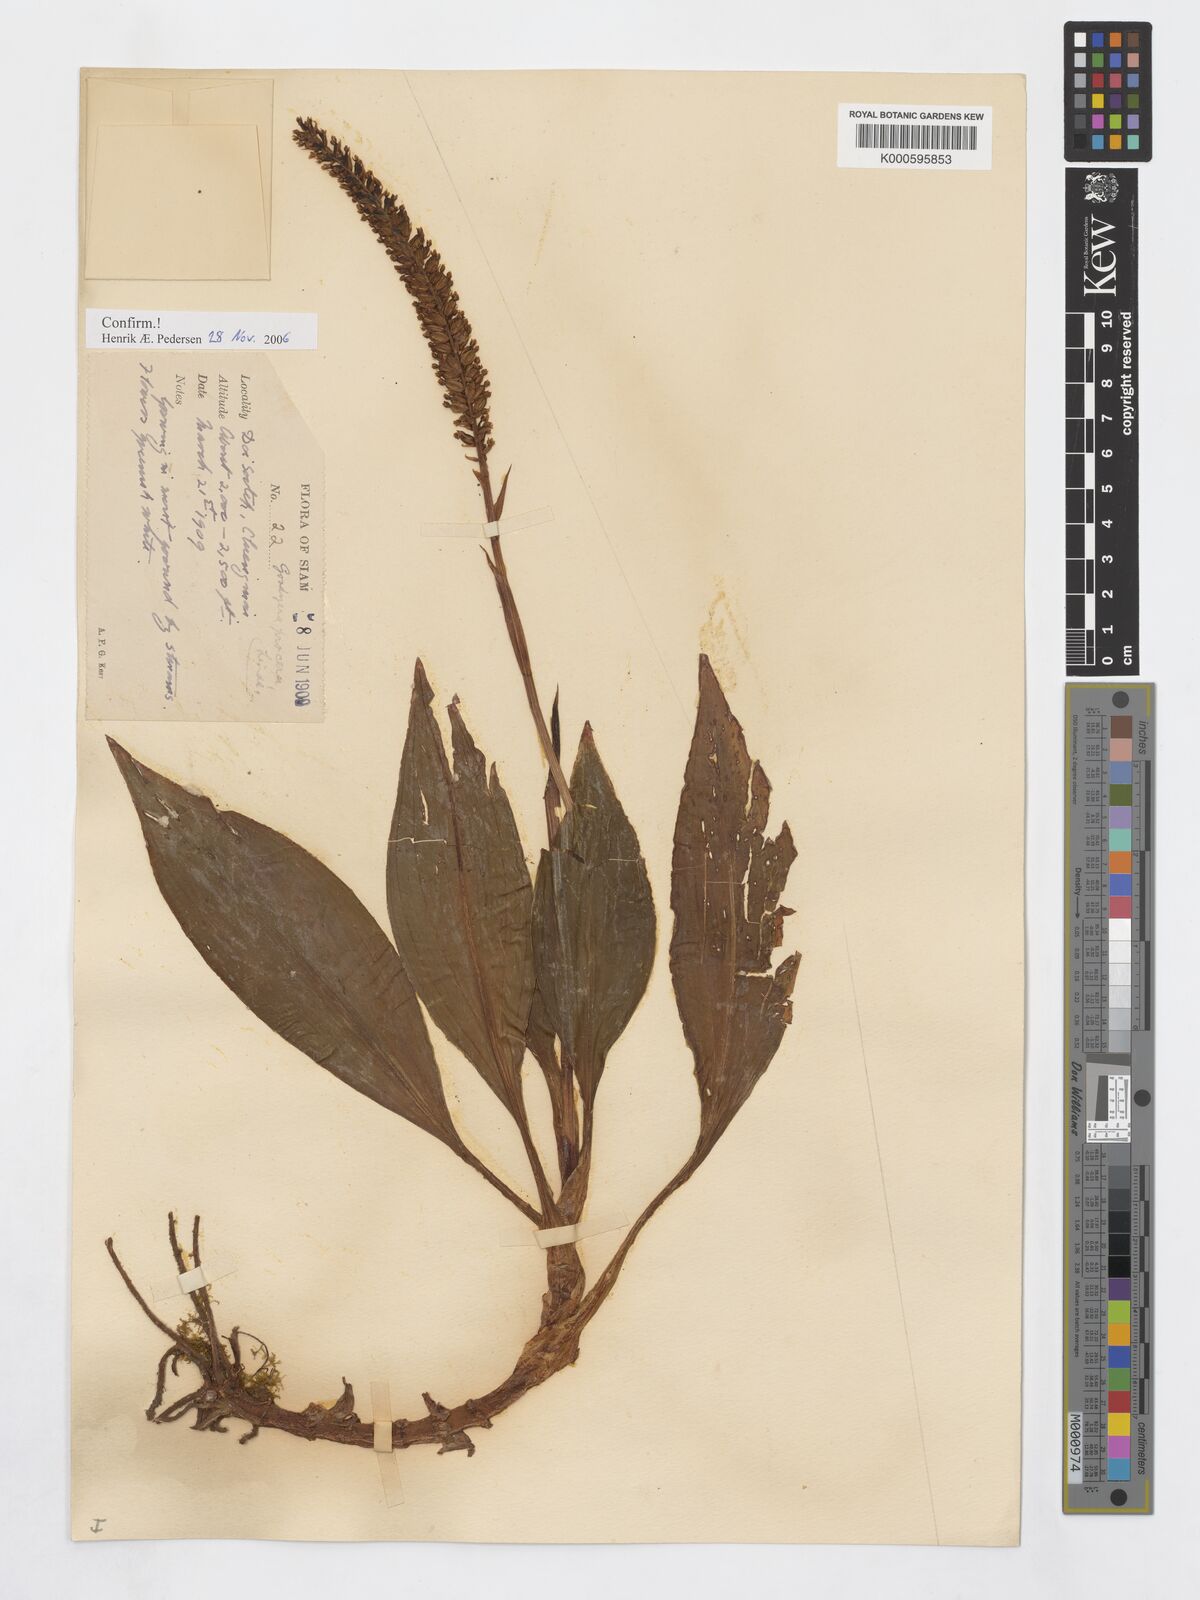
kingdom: Plantae
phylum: Tracheophyta
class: Liliopsida
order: Asparagales
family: Orchidaceae
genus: Goodyera
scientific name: Goodyera
